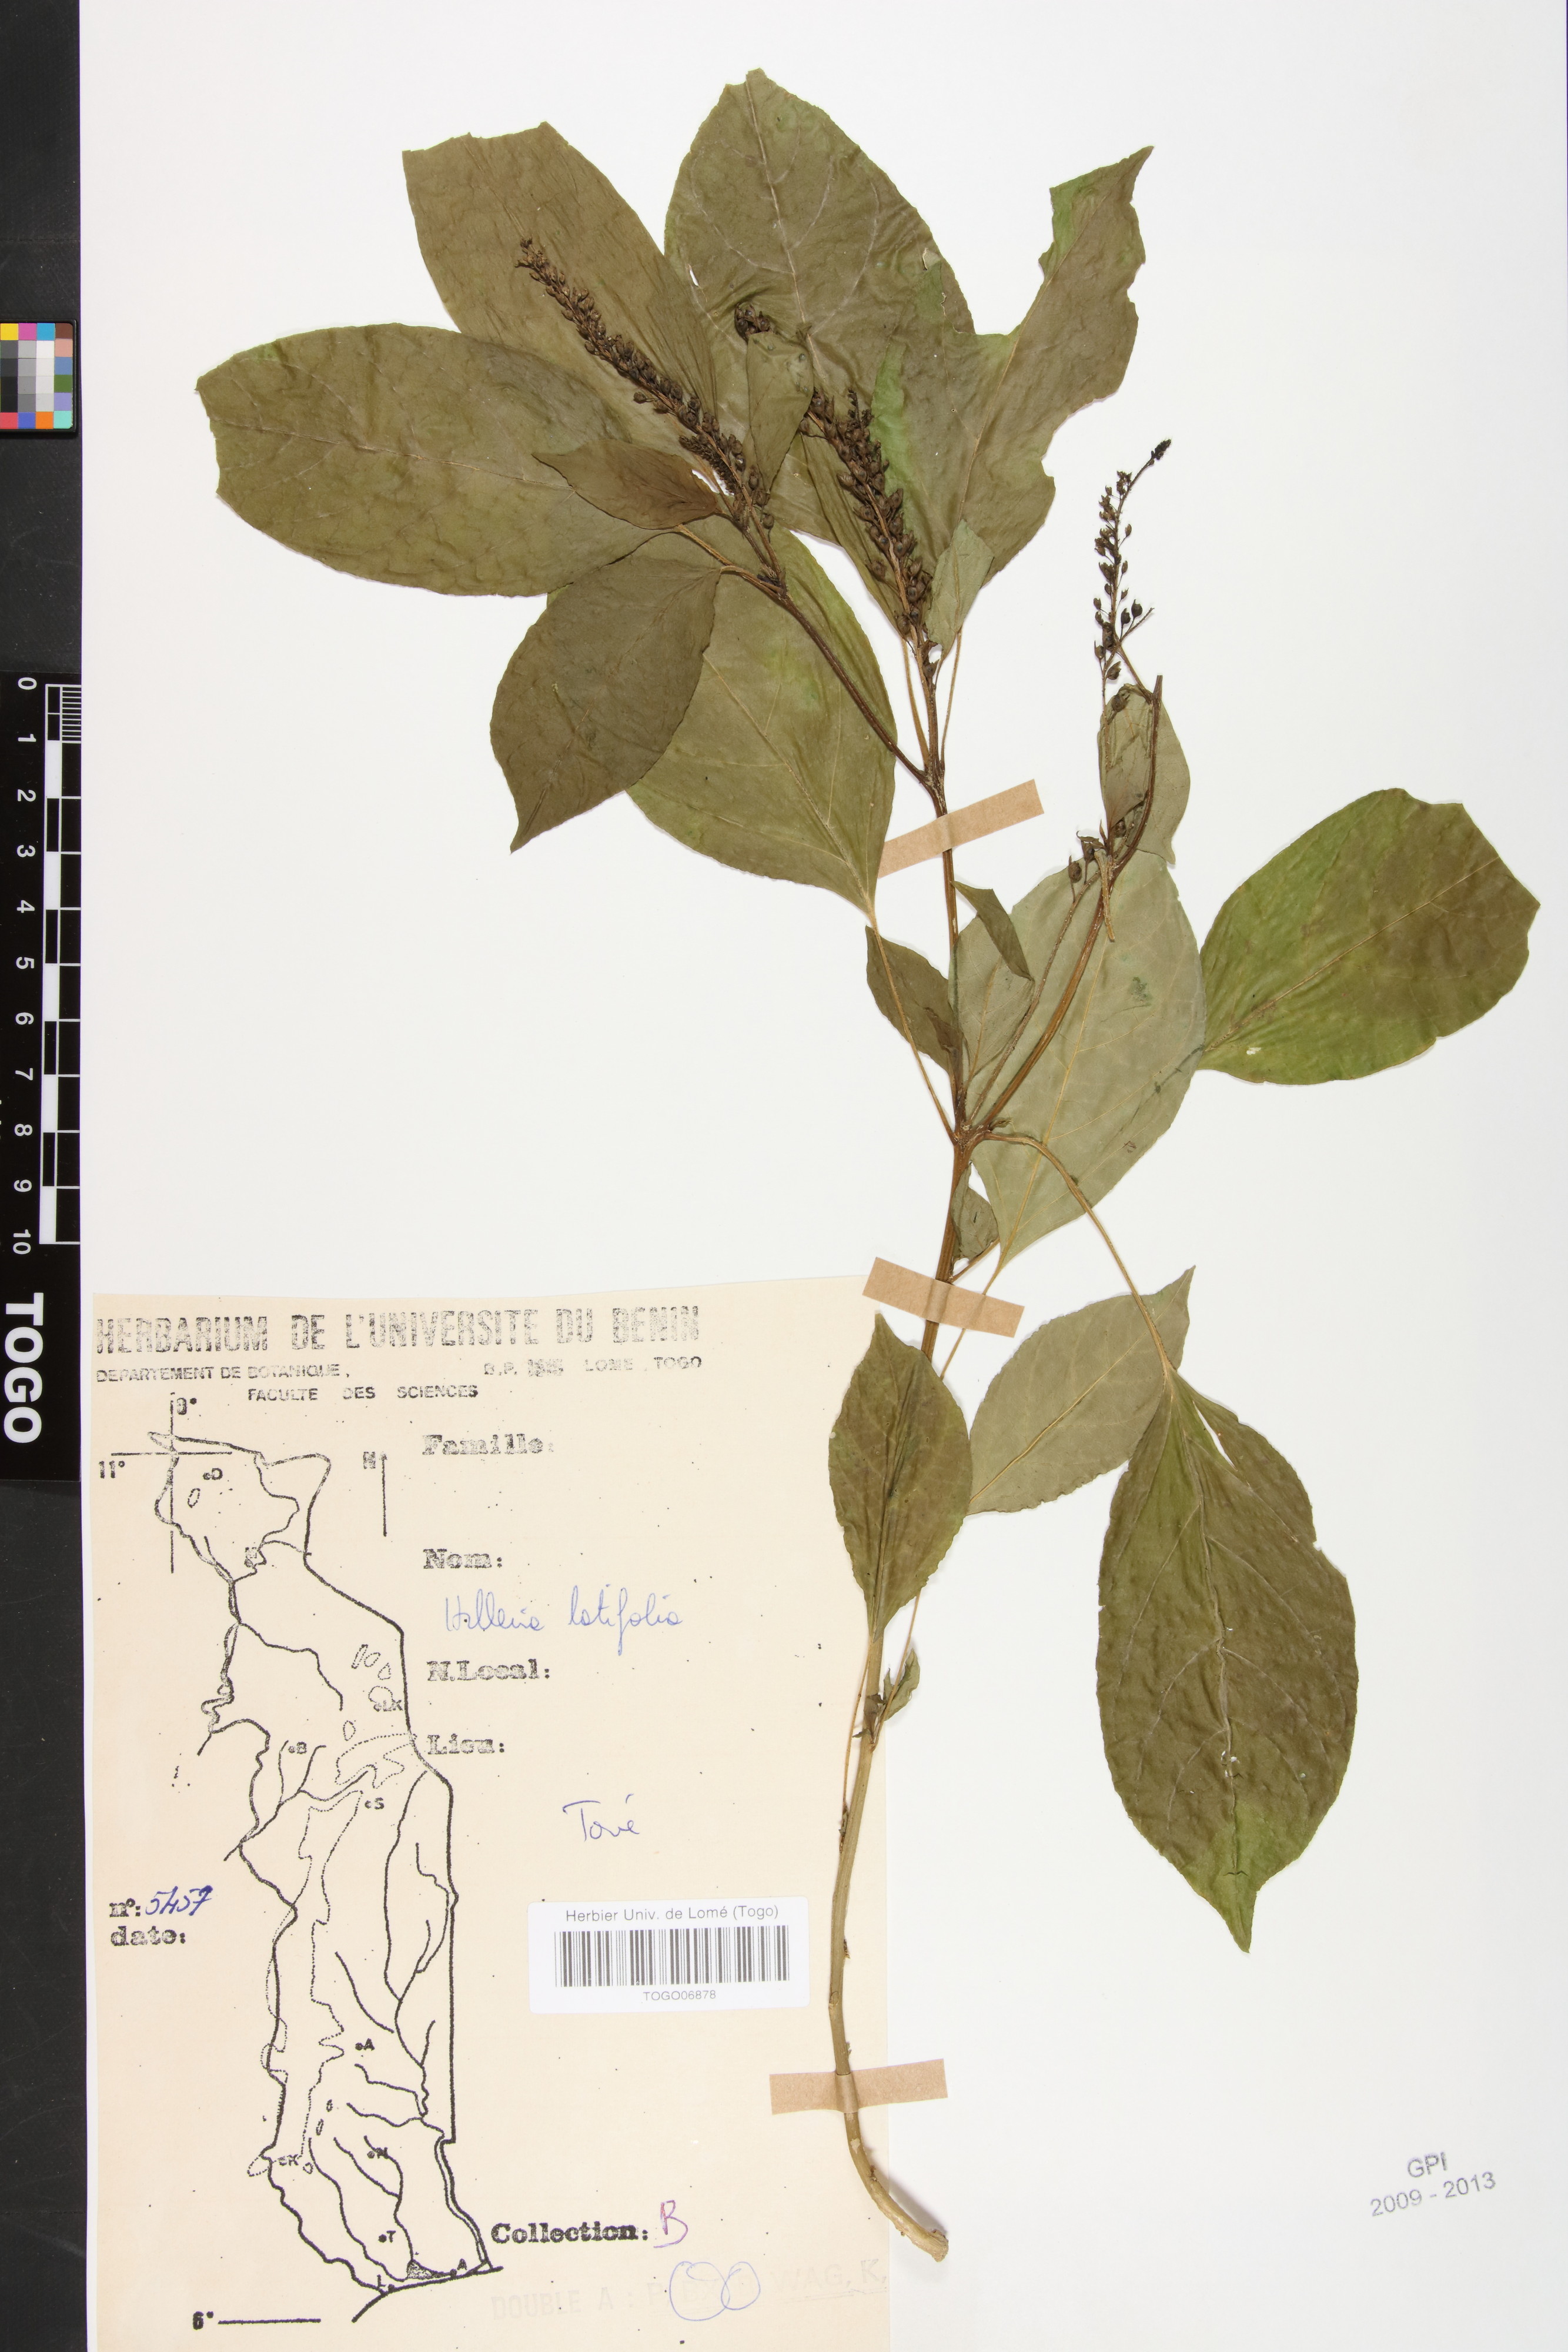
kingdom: Plantae
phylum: Tracheophyta
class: Magnoliopsida
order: Caryophyllales
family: Phytolaccaceae
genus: Hilleria
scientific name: Hilleria latifolia
